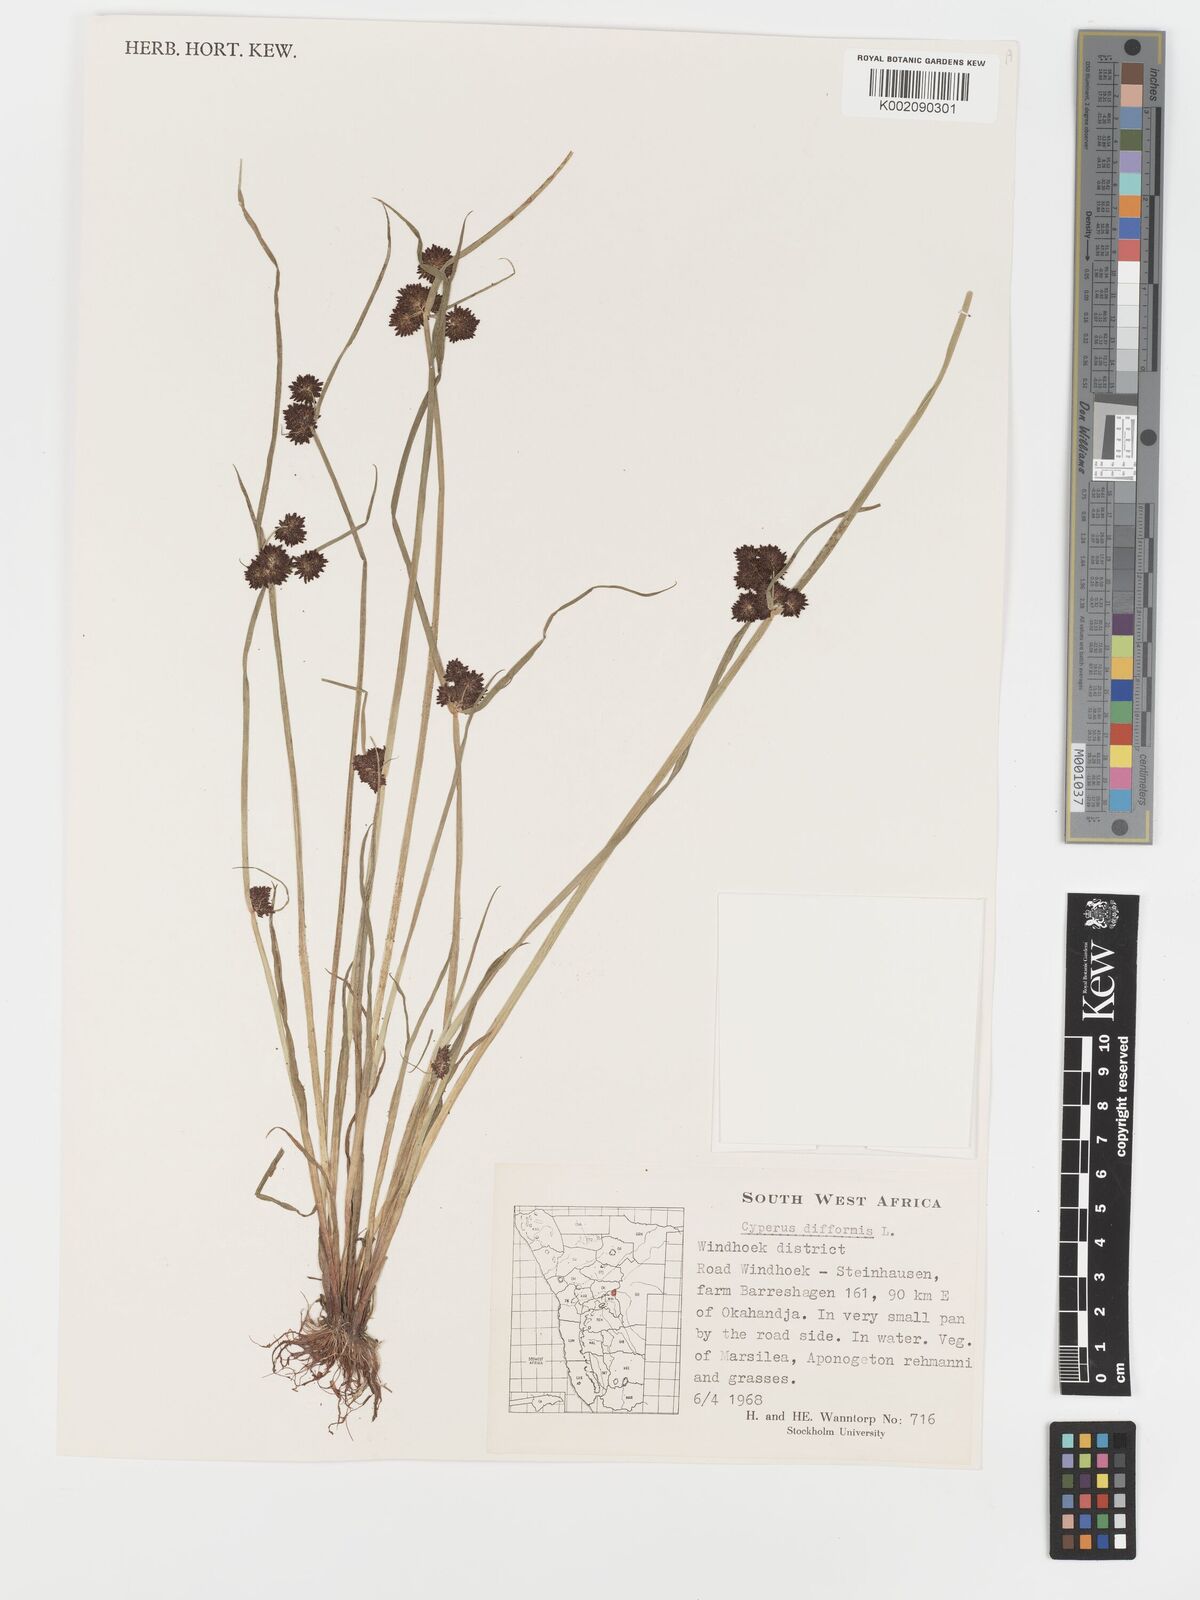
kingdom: Plantae
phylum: Tracheophyta
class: Liliopsida
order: Poales
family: Cyperaceae
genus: Cyperus
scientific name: Cyperus difformis
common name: Variable flatsedge
